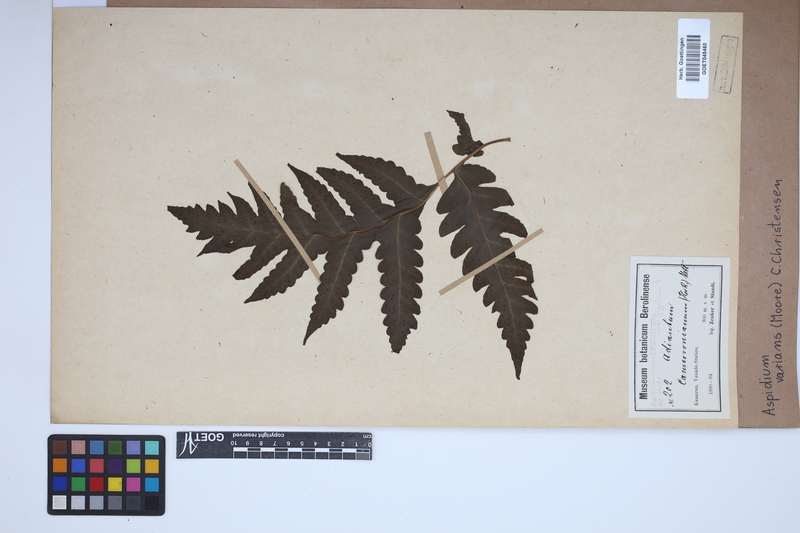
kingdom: Plantae
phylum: Tracheophyta
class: Polypodiopsida
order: Polypodiales
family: Tectariaceae
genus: Triplophyllum
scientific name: Triplophyllum varians
